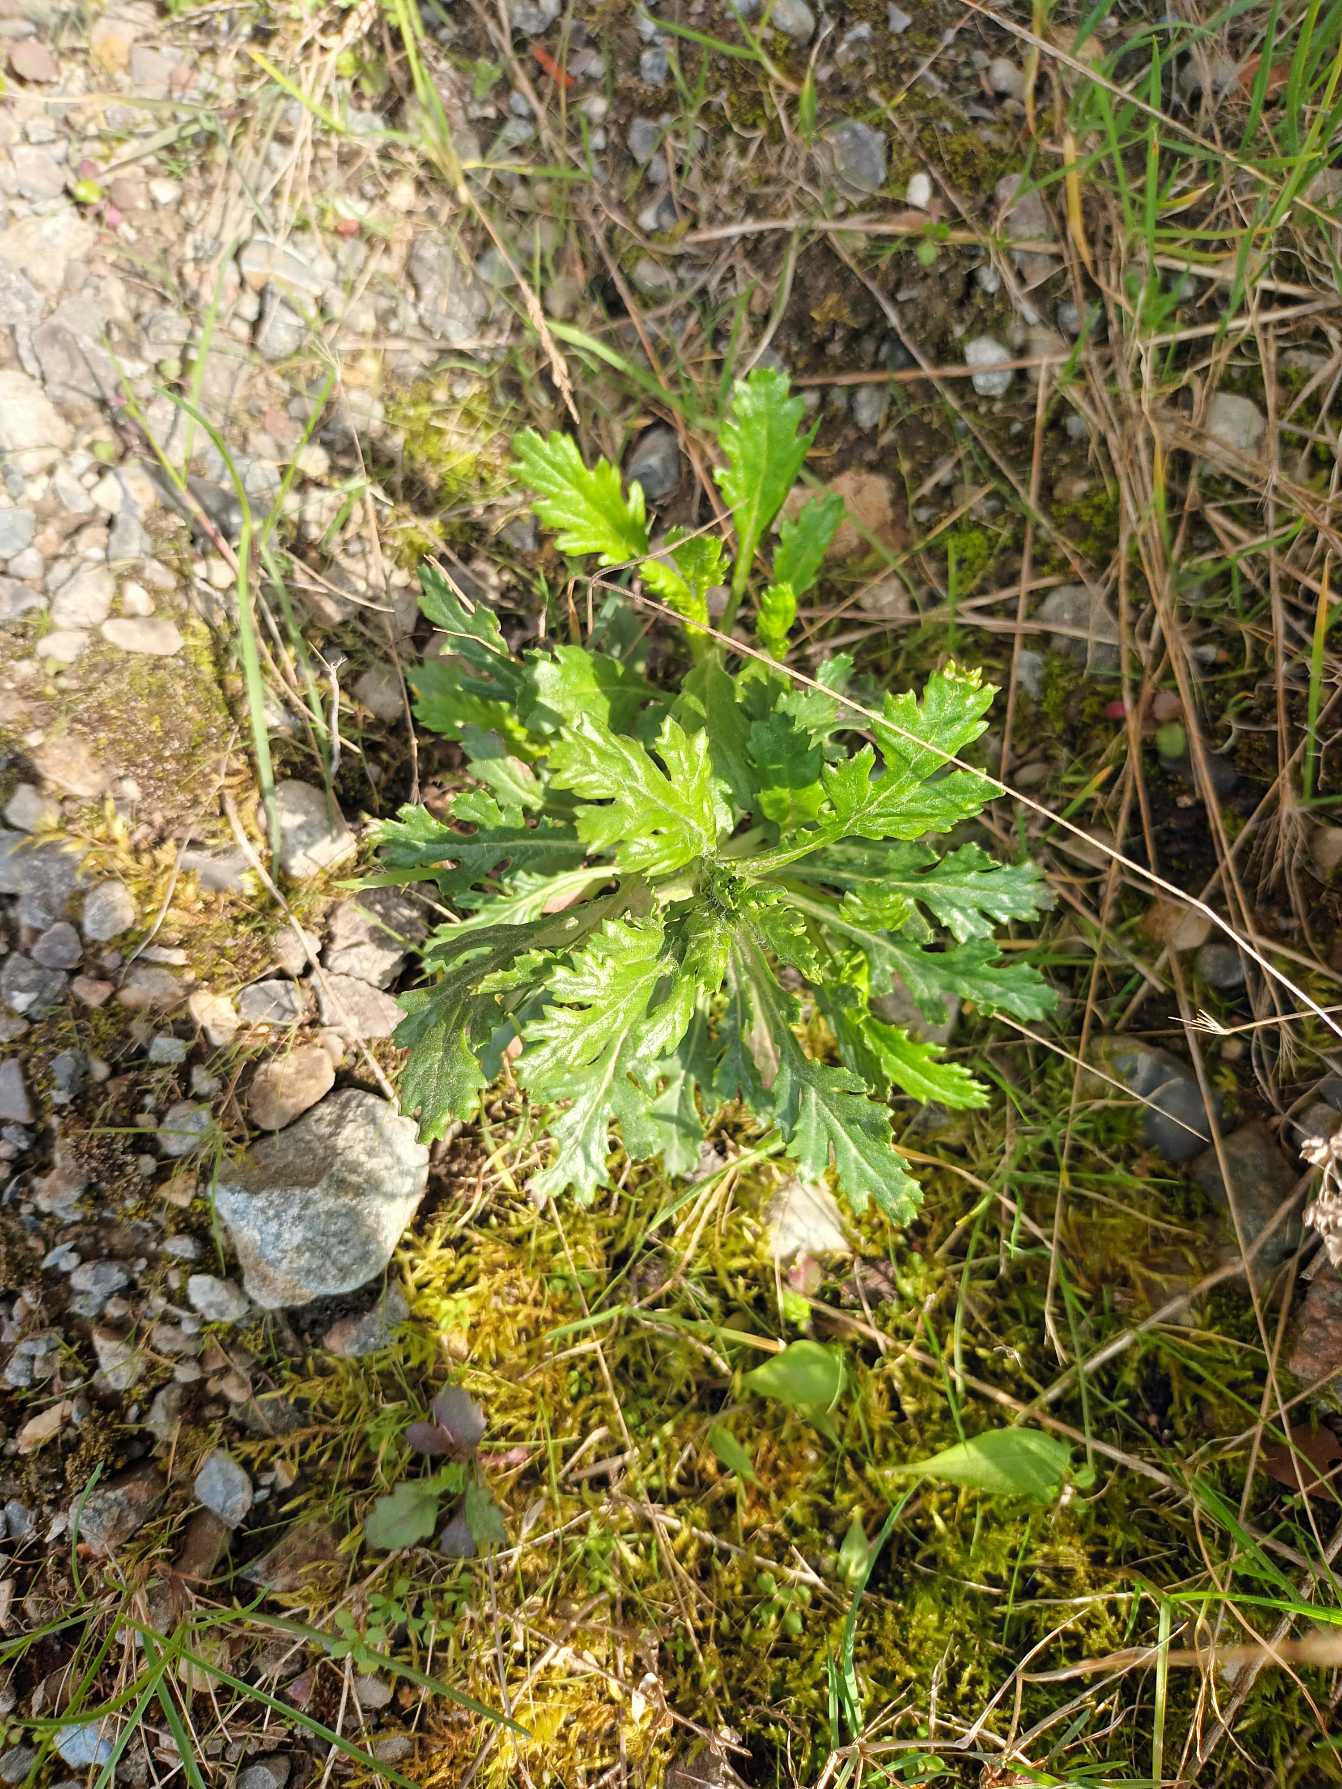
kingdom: Plantae
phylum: Tracheophyta
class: Magnoliopsida
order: Asterales
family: Asteraceae
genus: Senecio
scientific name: Senecio squalidus
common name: Italiensk brandbæger
